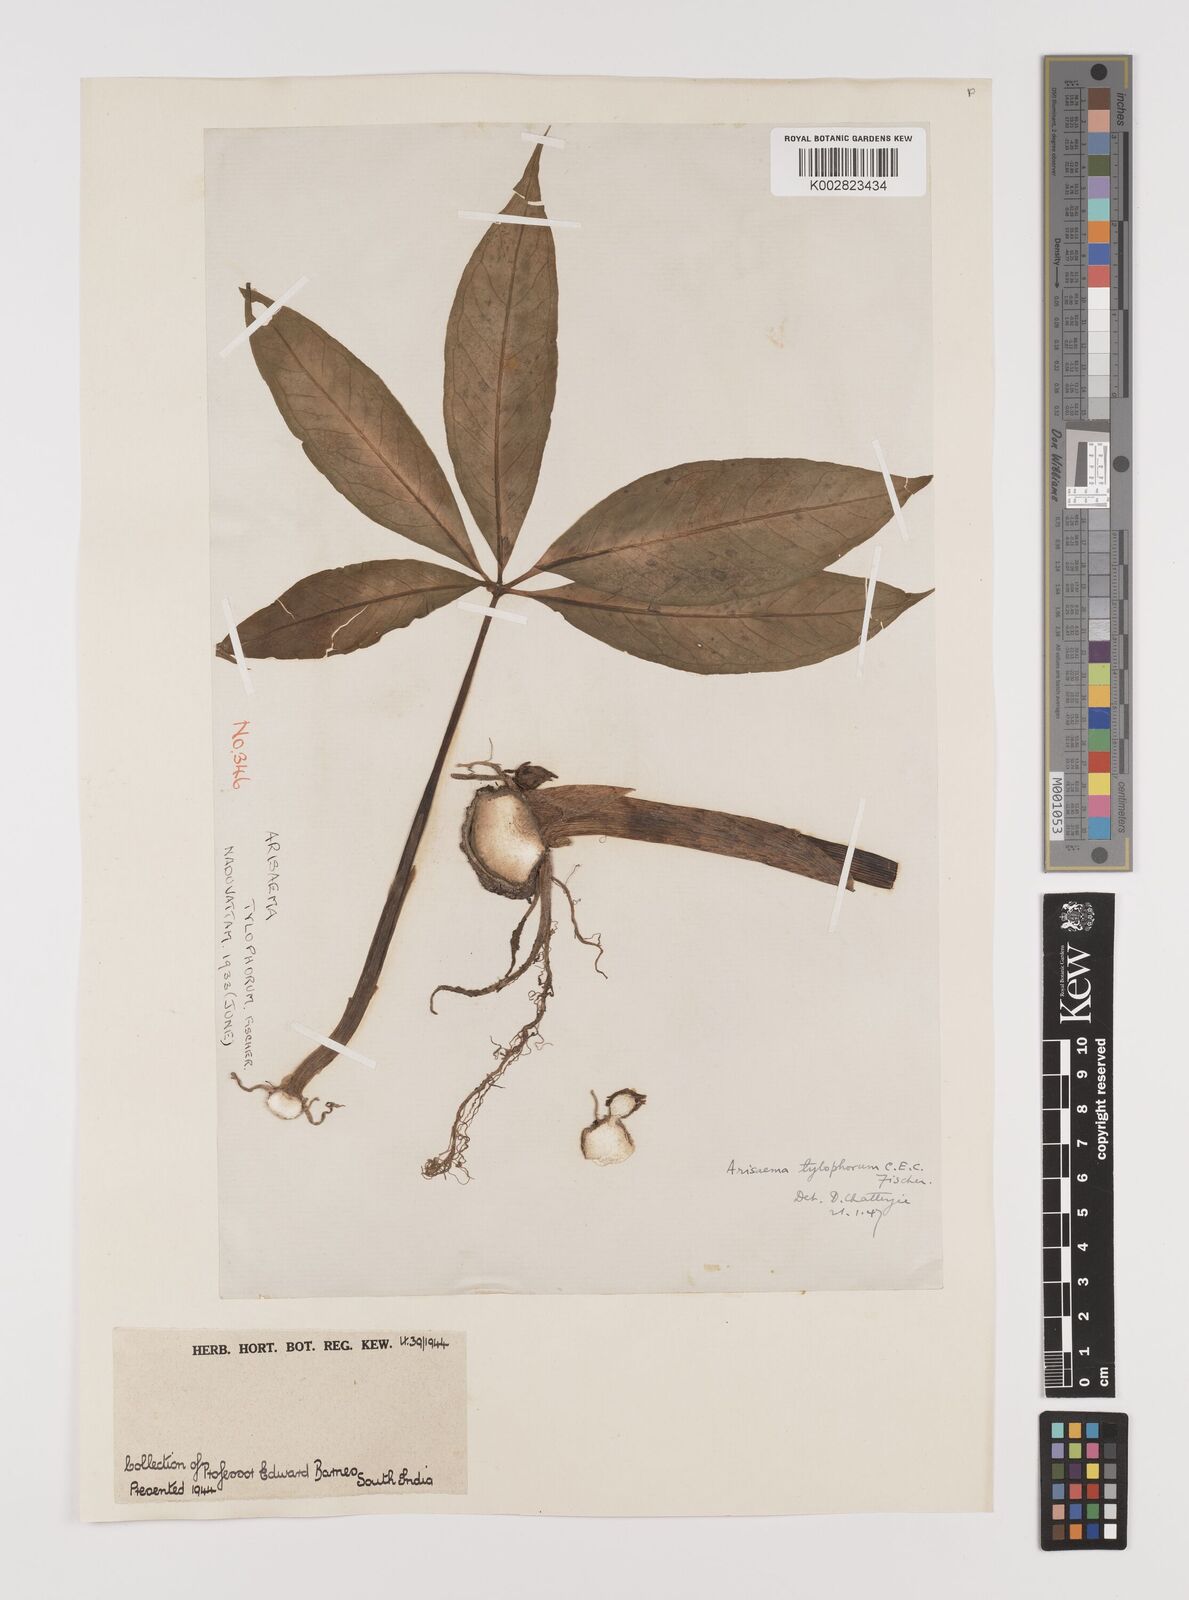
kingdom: Plantae
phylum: Tracheophyta
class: Liliopsida
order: Alismatales
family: Araceae
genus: Arisaema
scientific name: Arisaema barnesii
